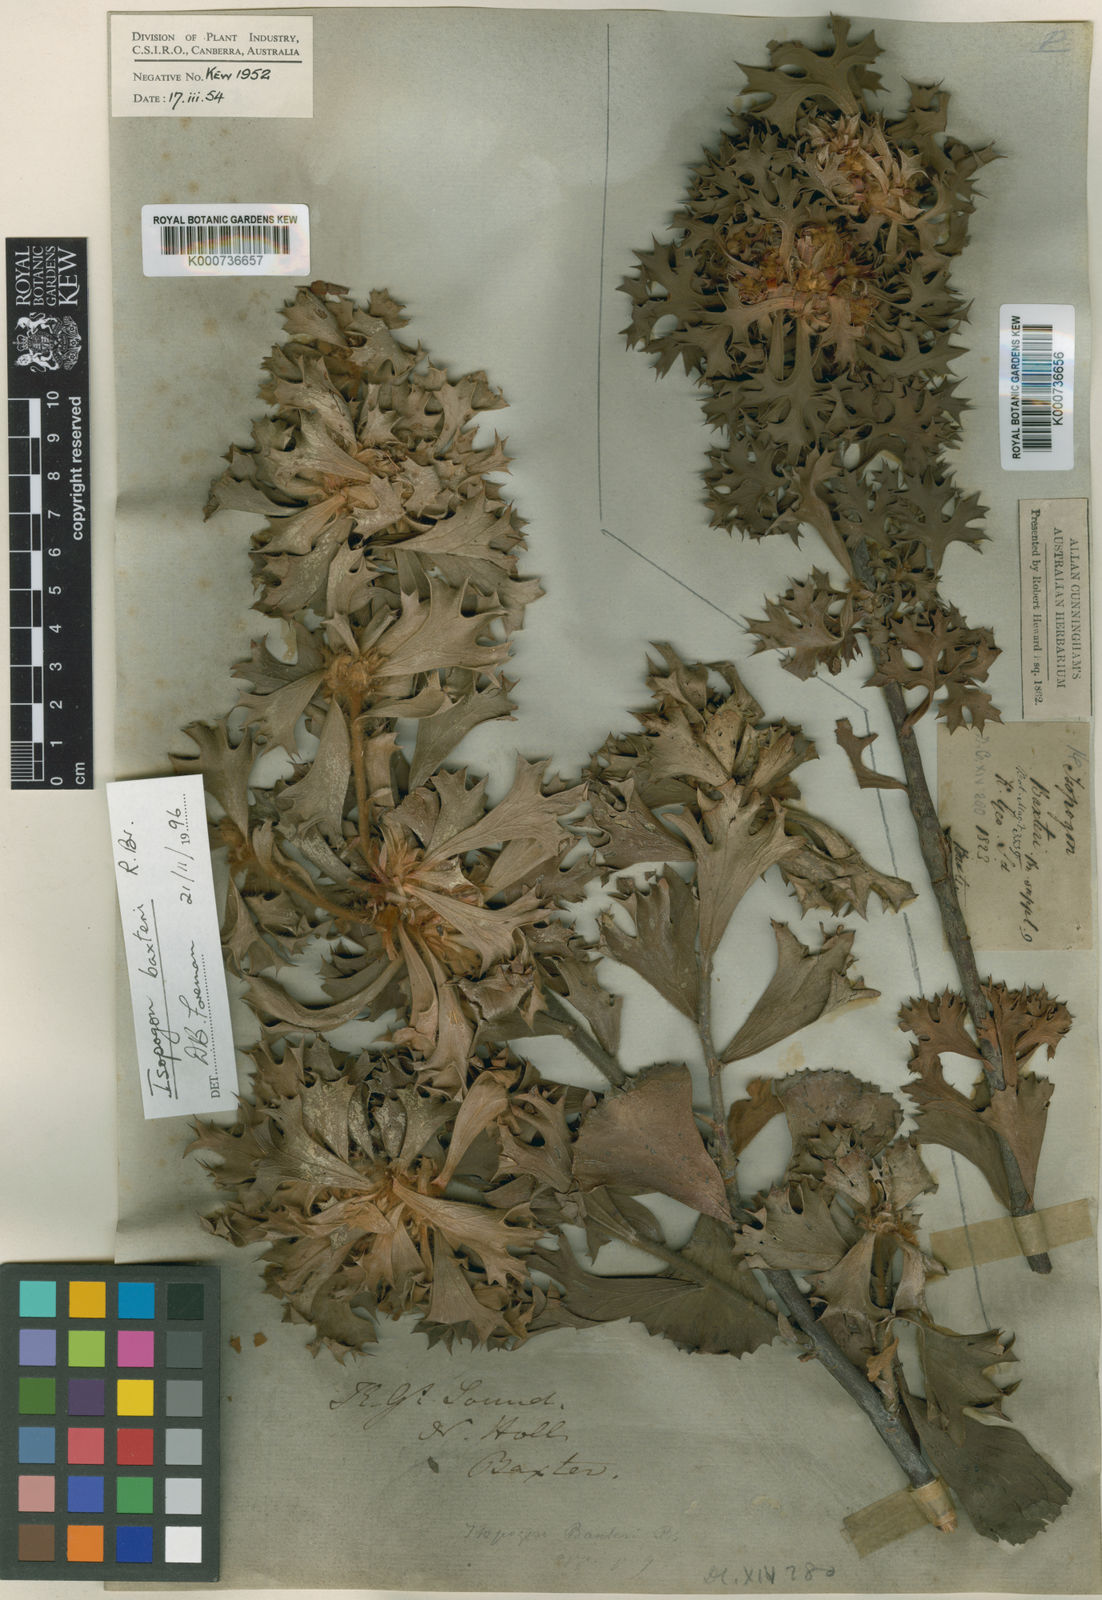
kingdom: Plantae
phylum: Tracheophyta
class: Magnoliopsida
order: Proteales
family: Proteaceae
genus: Isopogon
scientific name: Isopogon baxteri
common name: Stirling range coneflower
